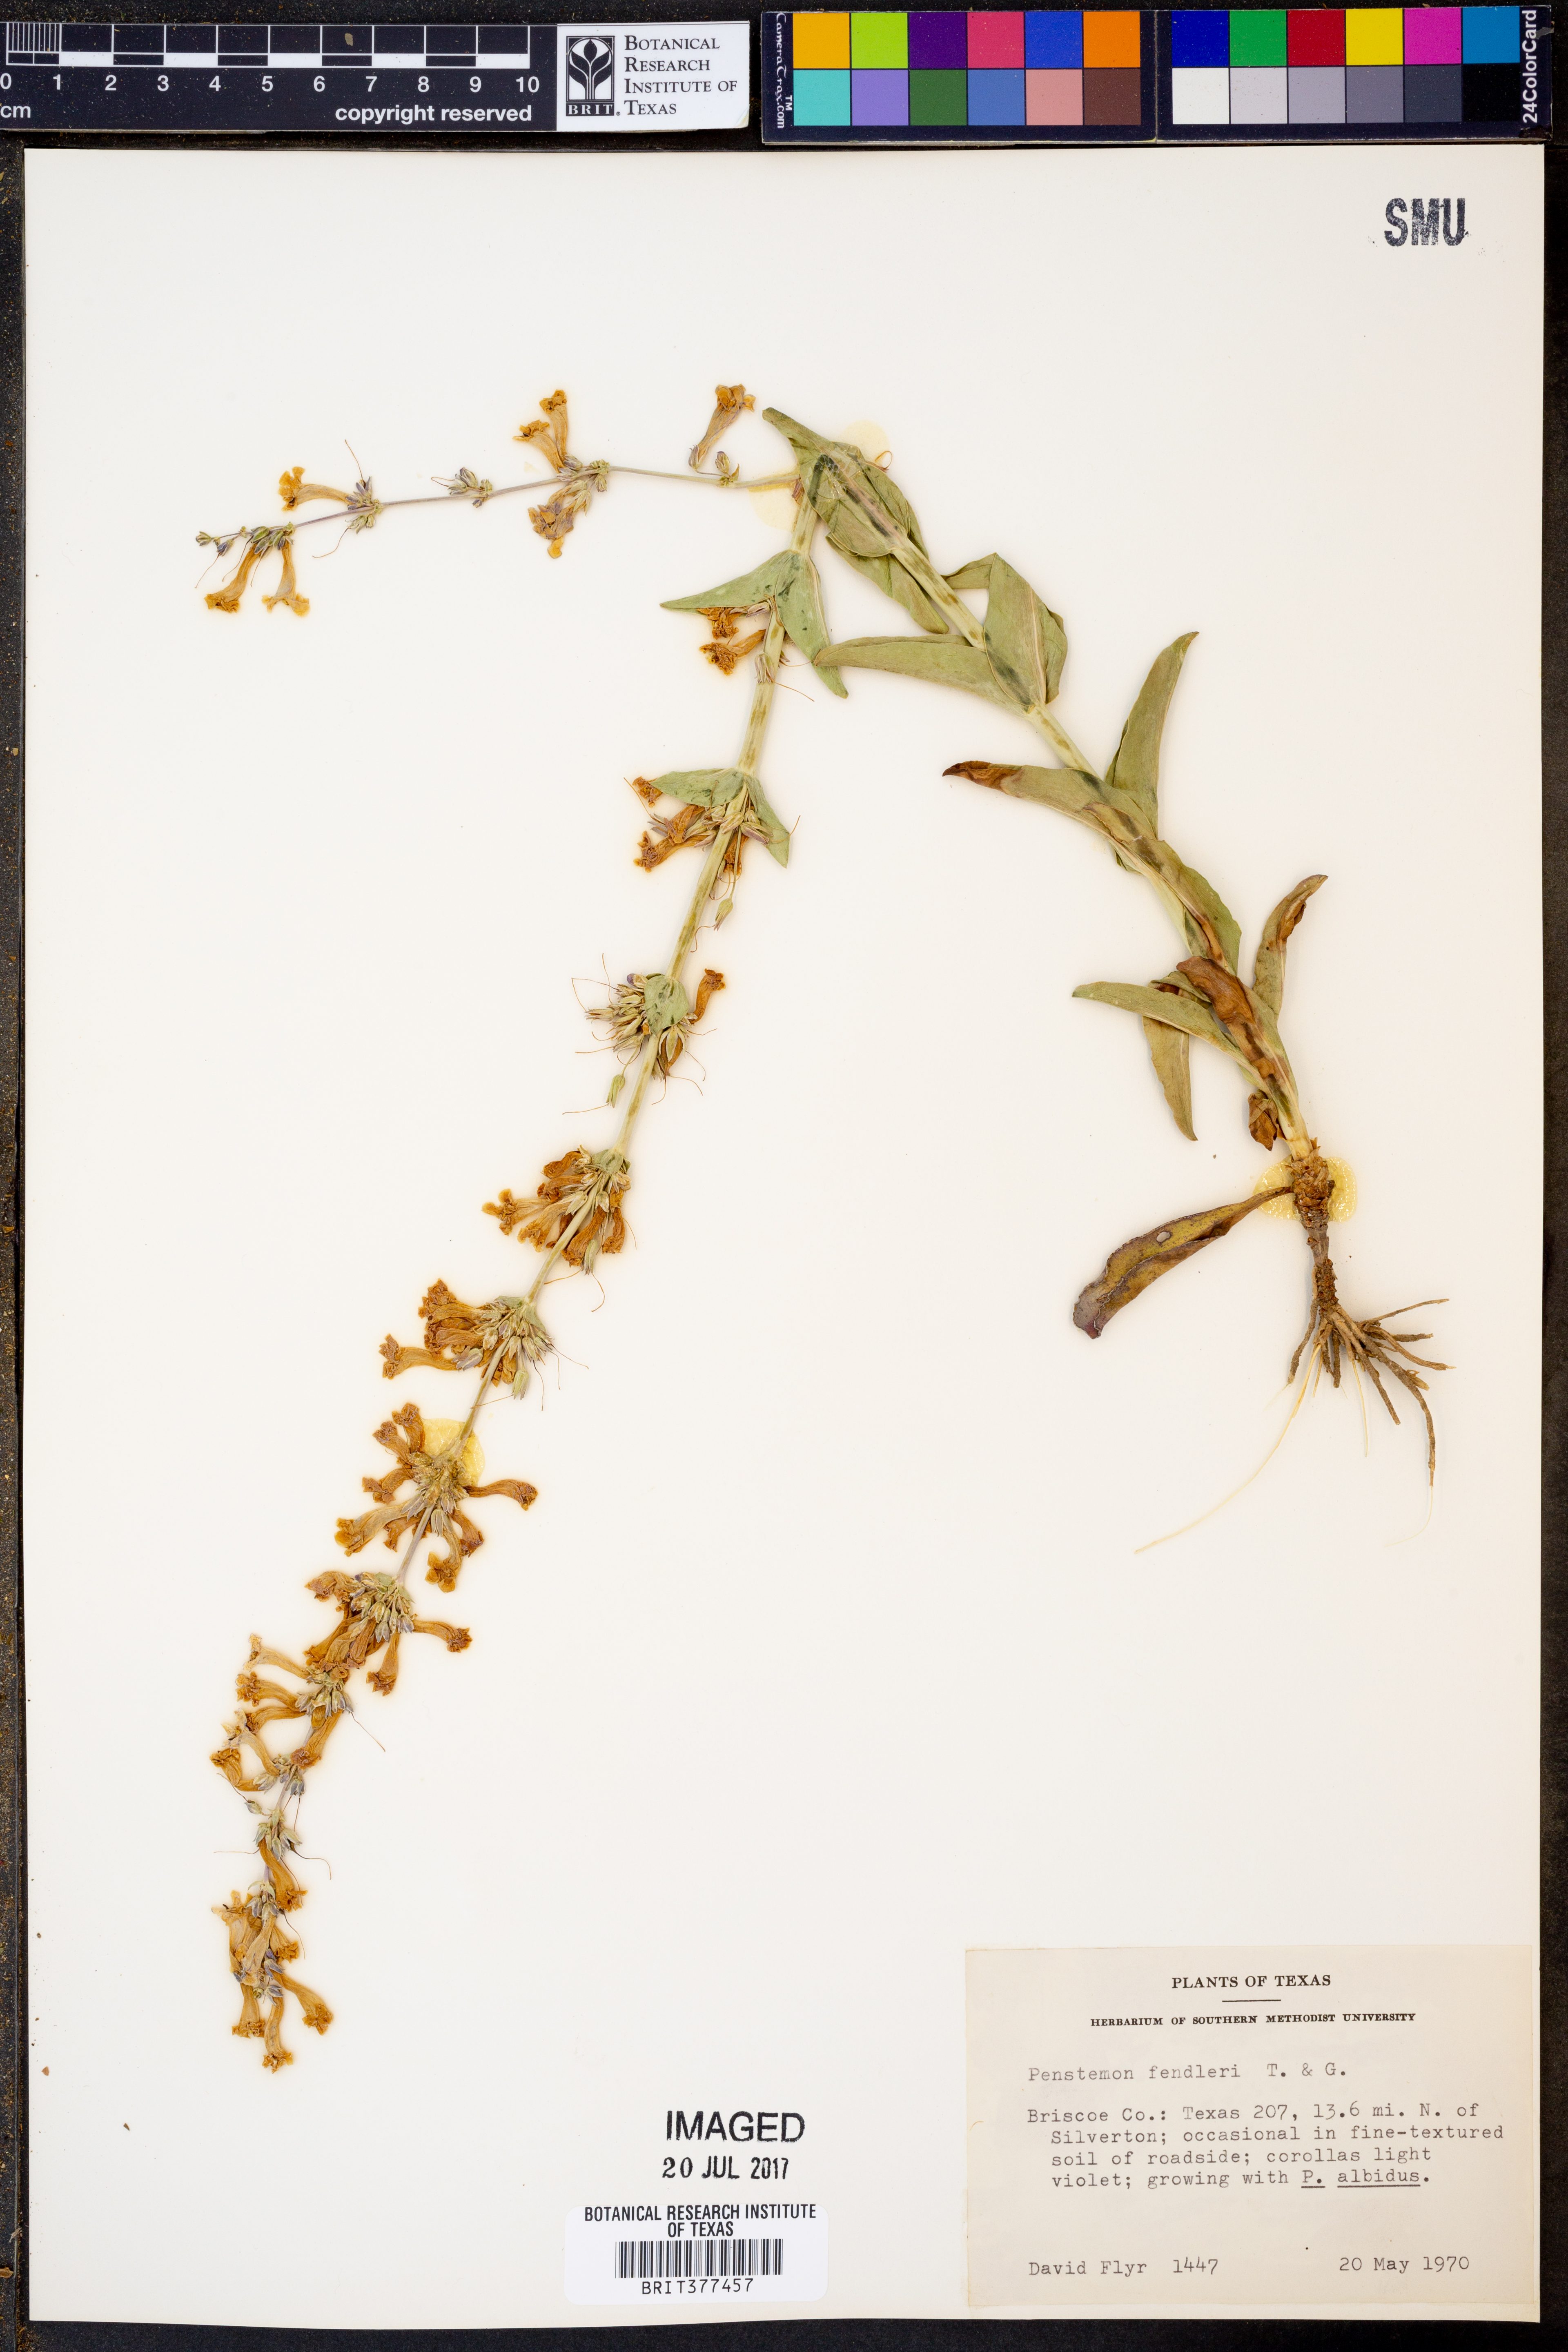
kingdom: Plantae
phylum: Tracheophyta
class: Magnoliopsida
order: Lamiales
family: Plantaginaceae
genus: Penstemon
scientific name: Penstemon fendleri
